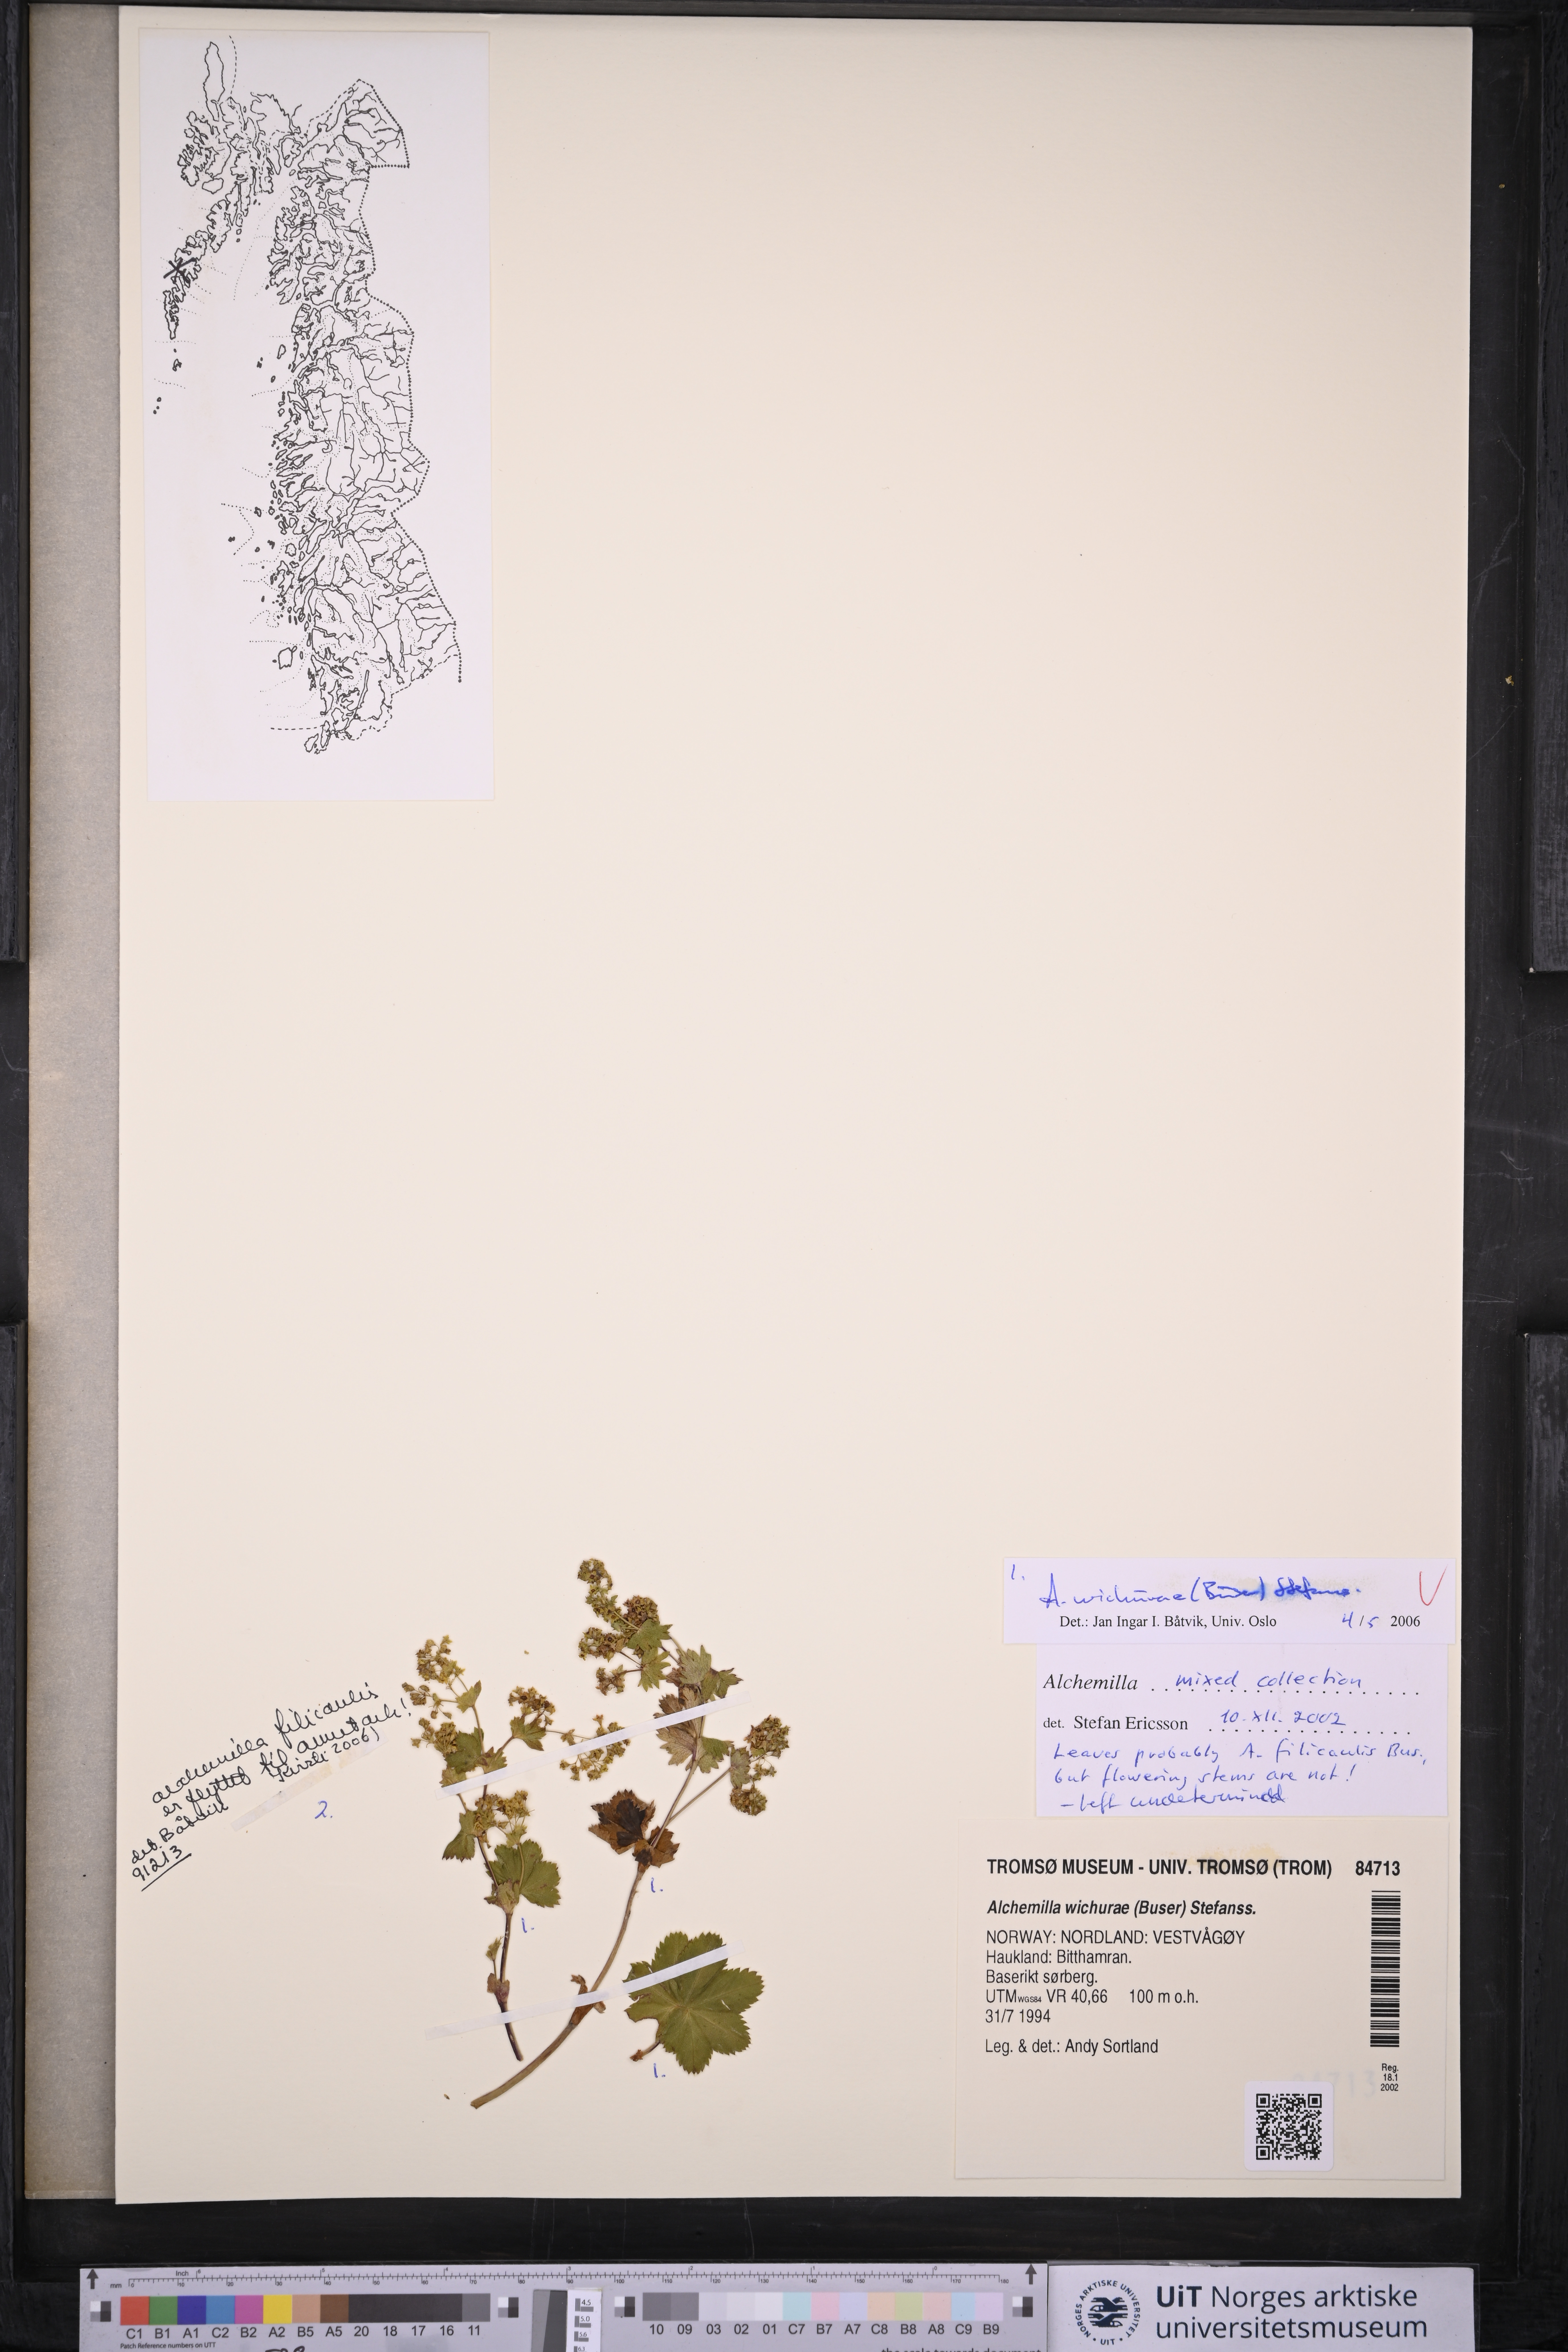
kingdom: Plantae
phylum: Tracheophyta
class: Magnoliopsida
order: Rosales
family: Rosaceae
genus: Alchemilla
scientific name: Alchemilla wichurae
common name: Rock lady's mantle
